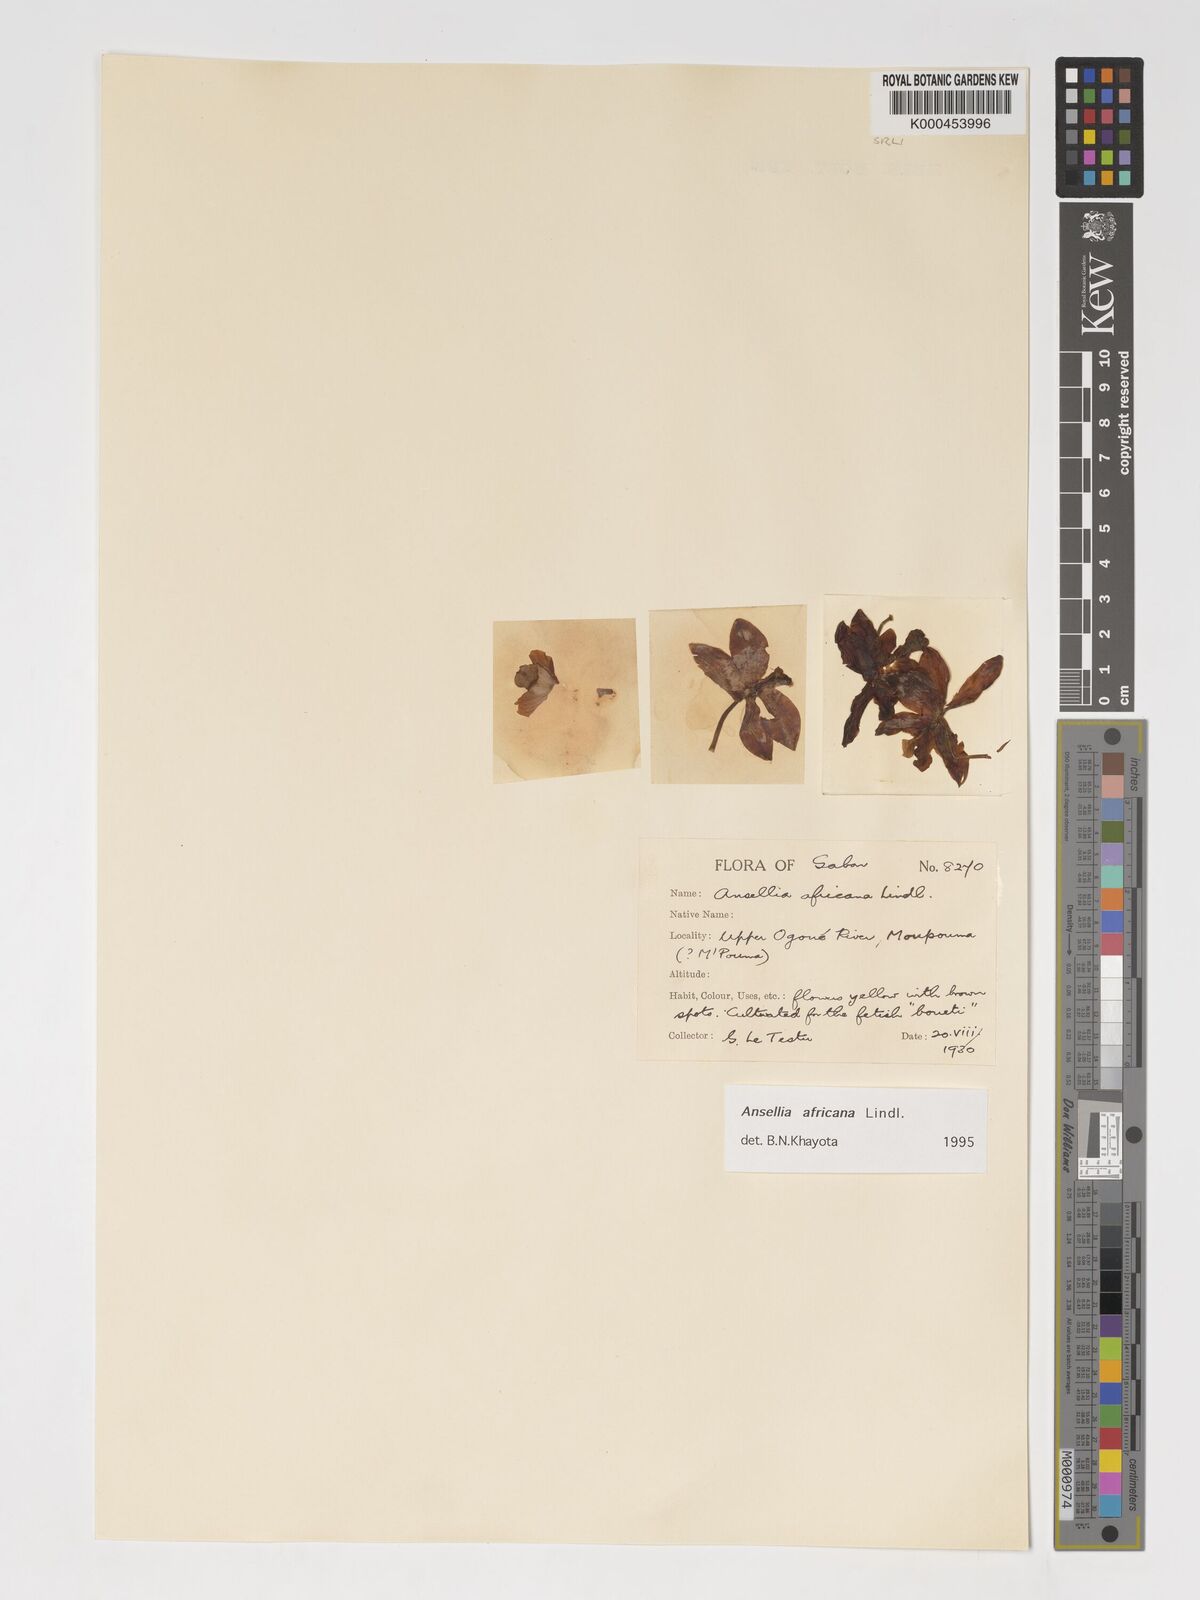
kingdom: Plantae
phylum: Tracheophyta
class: Liliopsida
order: Asparagales
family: Orchidaceae
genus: Ansellia
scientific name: Ansellia africana
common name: African ansellia
